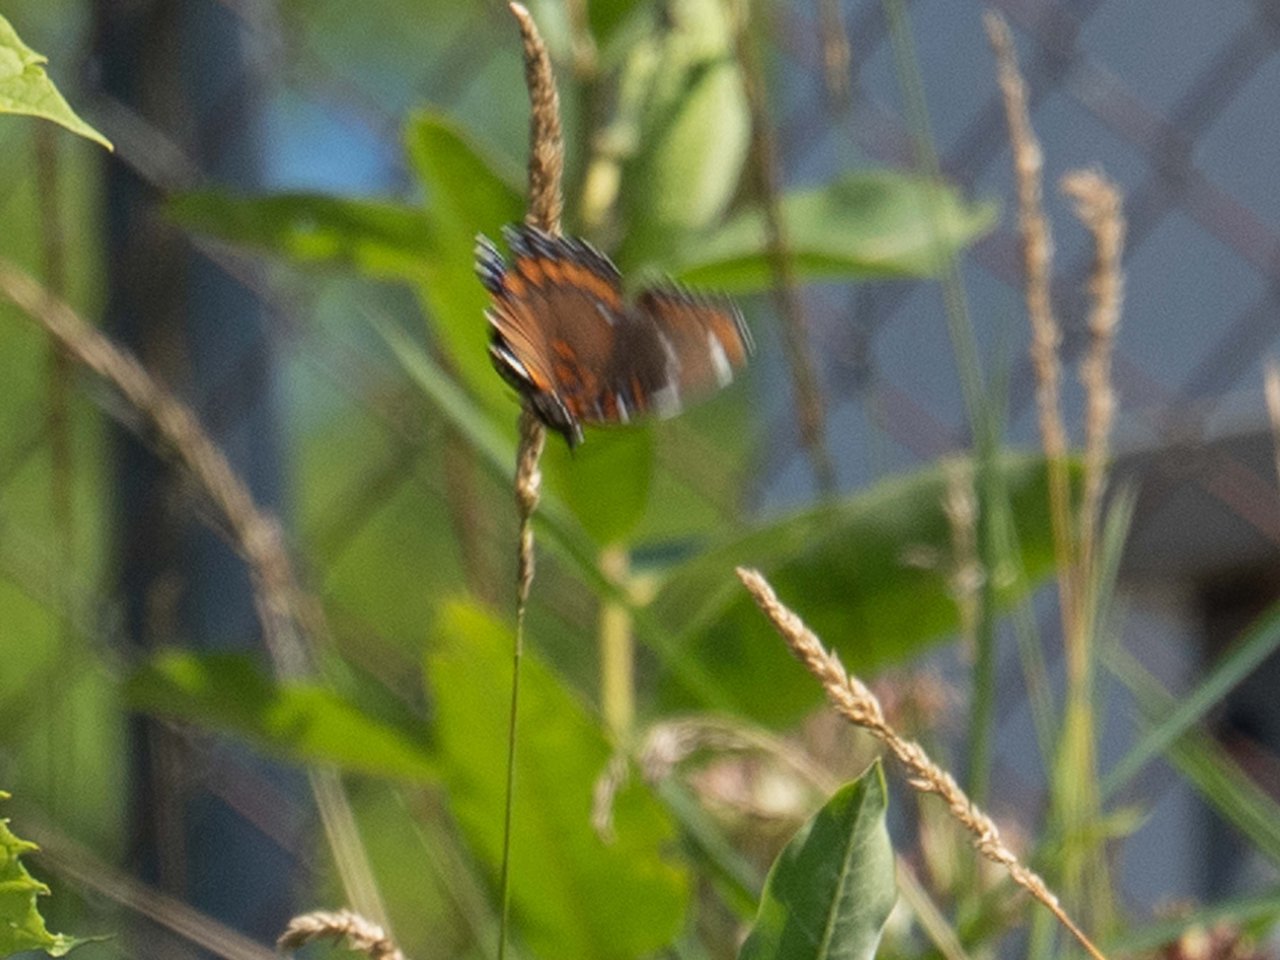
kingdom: Animalia
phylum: Arthropoda
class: Insecta
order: Lepidoptera
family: Nymphalidae
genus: Limenitis
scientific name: Limenitis
